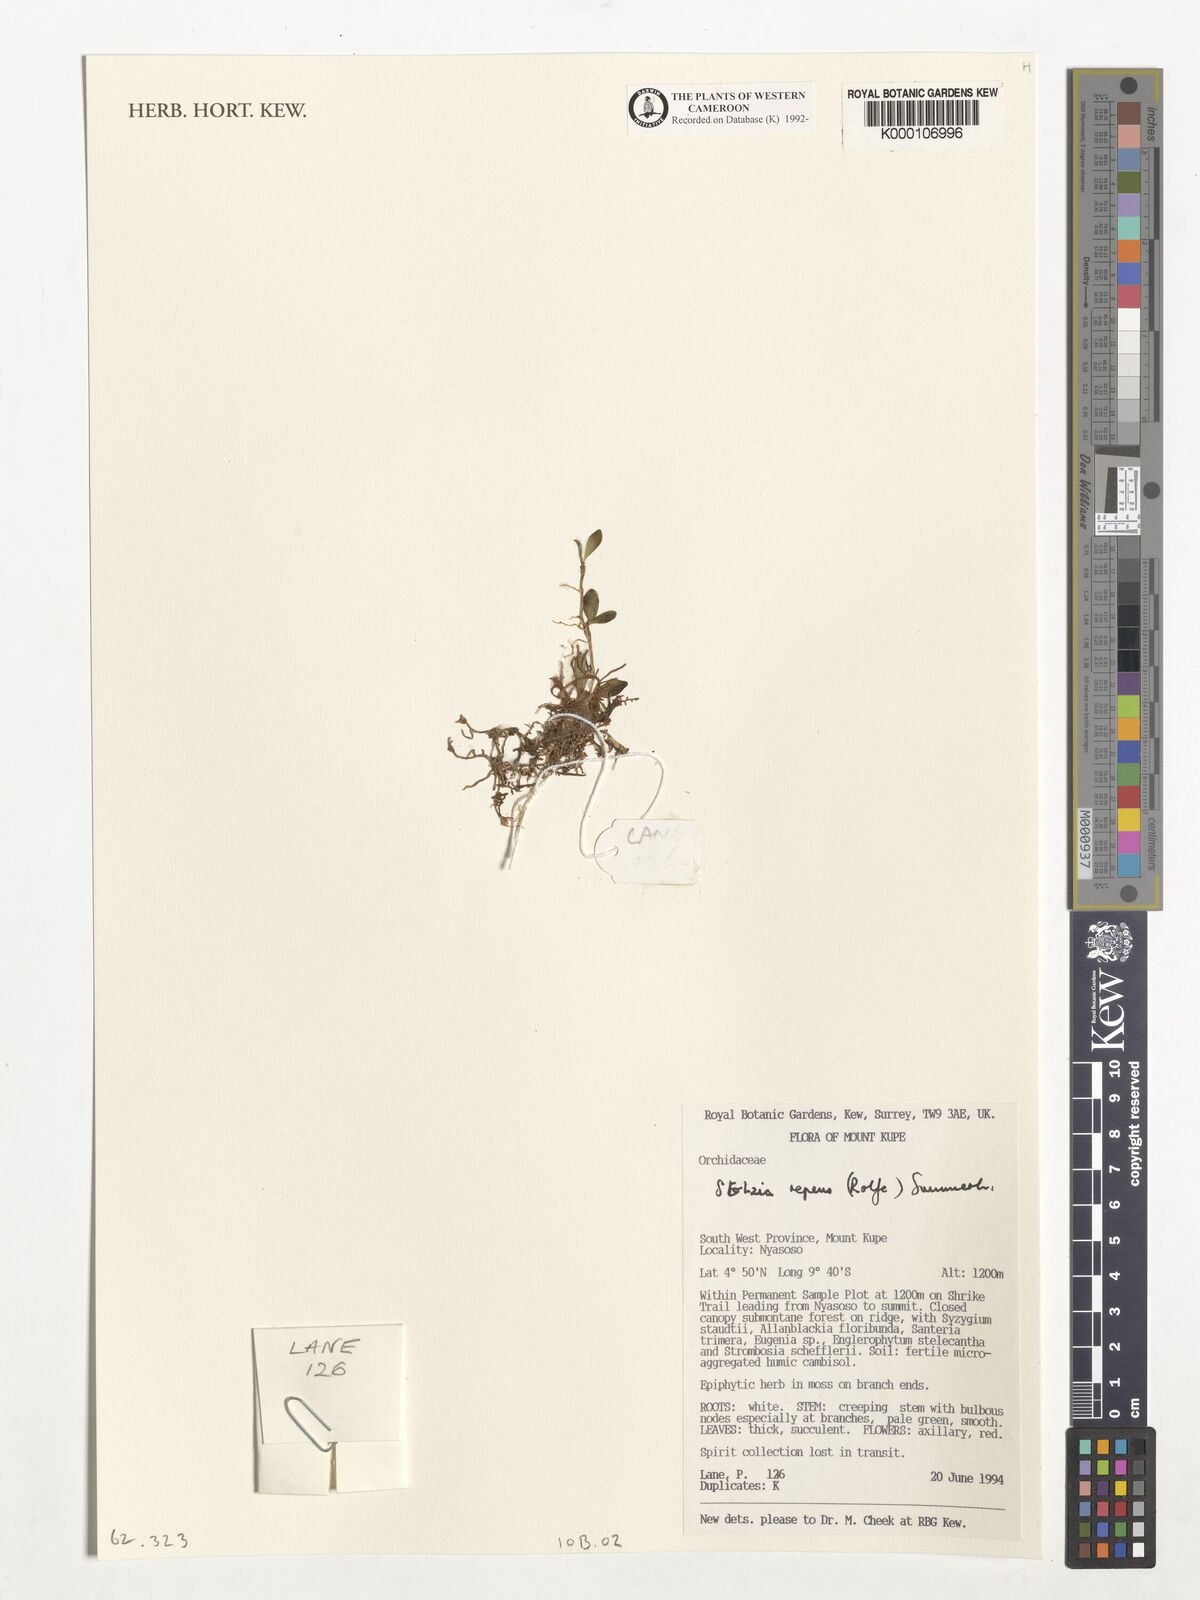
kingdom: Plantae
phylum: Tracheophyta
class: Liliopsida
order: Asparagales
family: Orchidaceae
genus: Porpax
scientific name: Porpax repens
